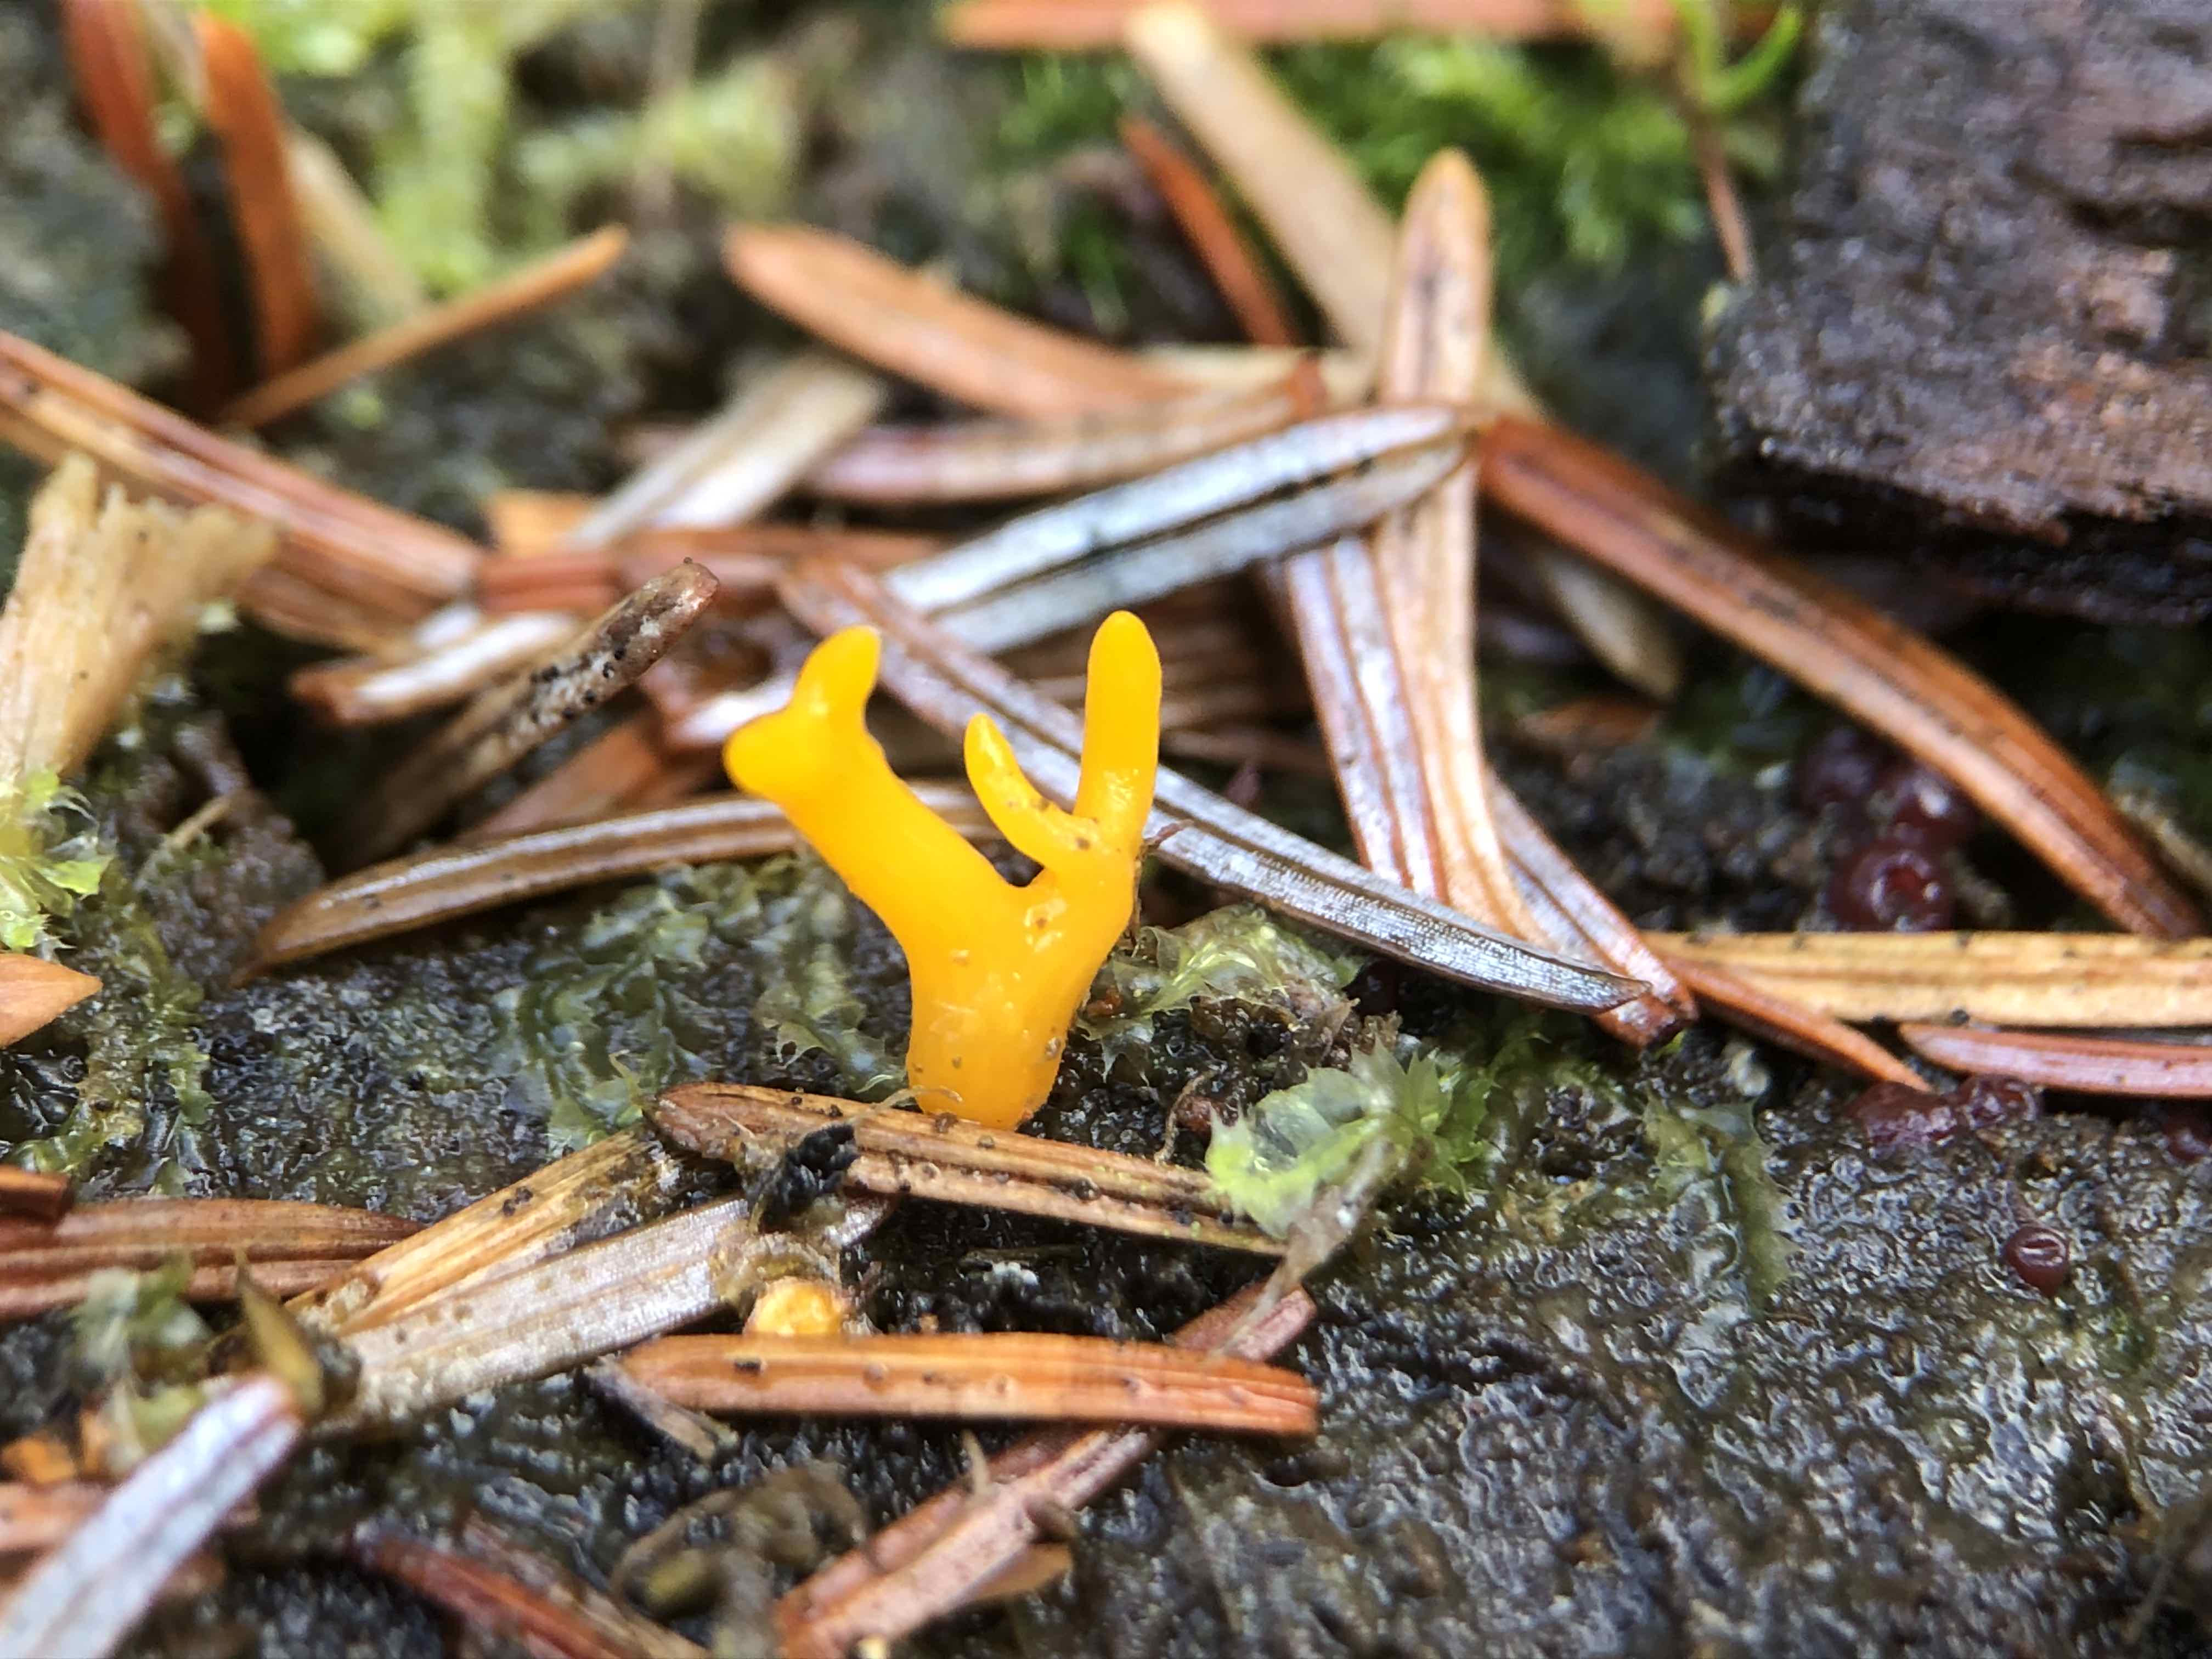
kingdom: Fungi
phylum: Basidiomycota
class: Dacrymycetes
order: Dacrymycetales
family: Dacrymycetaceae
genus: Calocera
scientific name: Calocera furcata
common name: fyrre-guldgaffel
